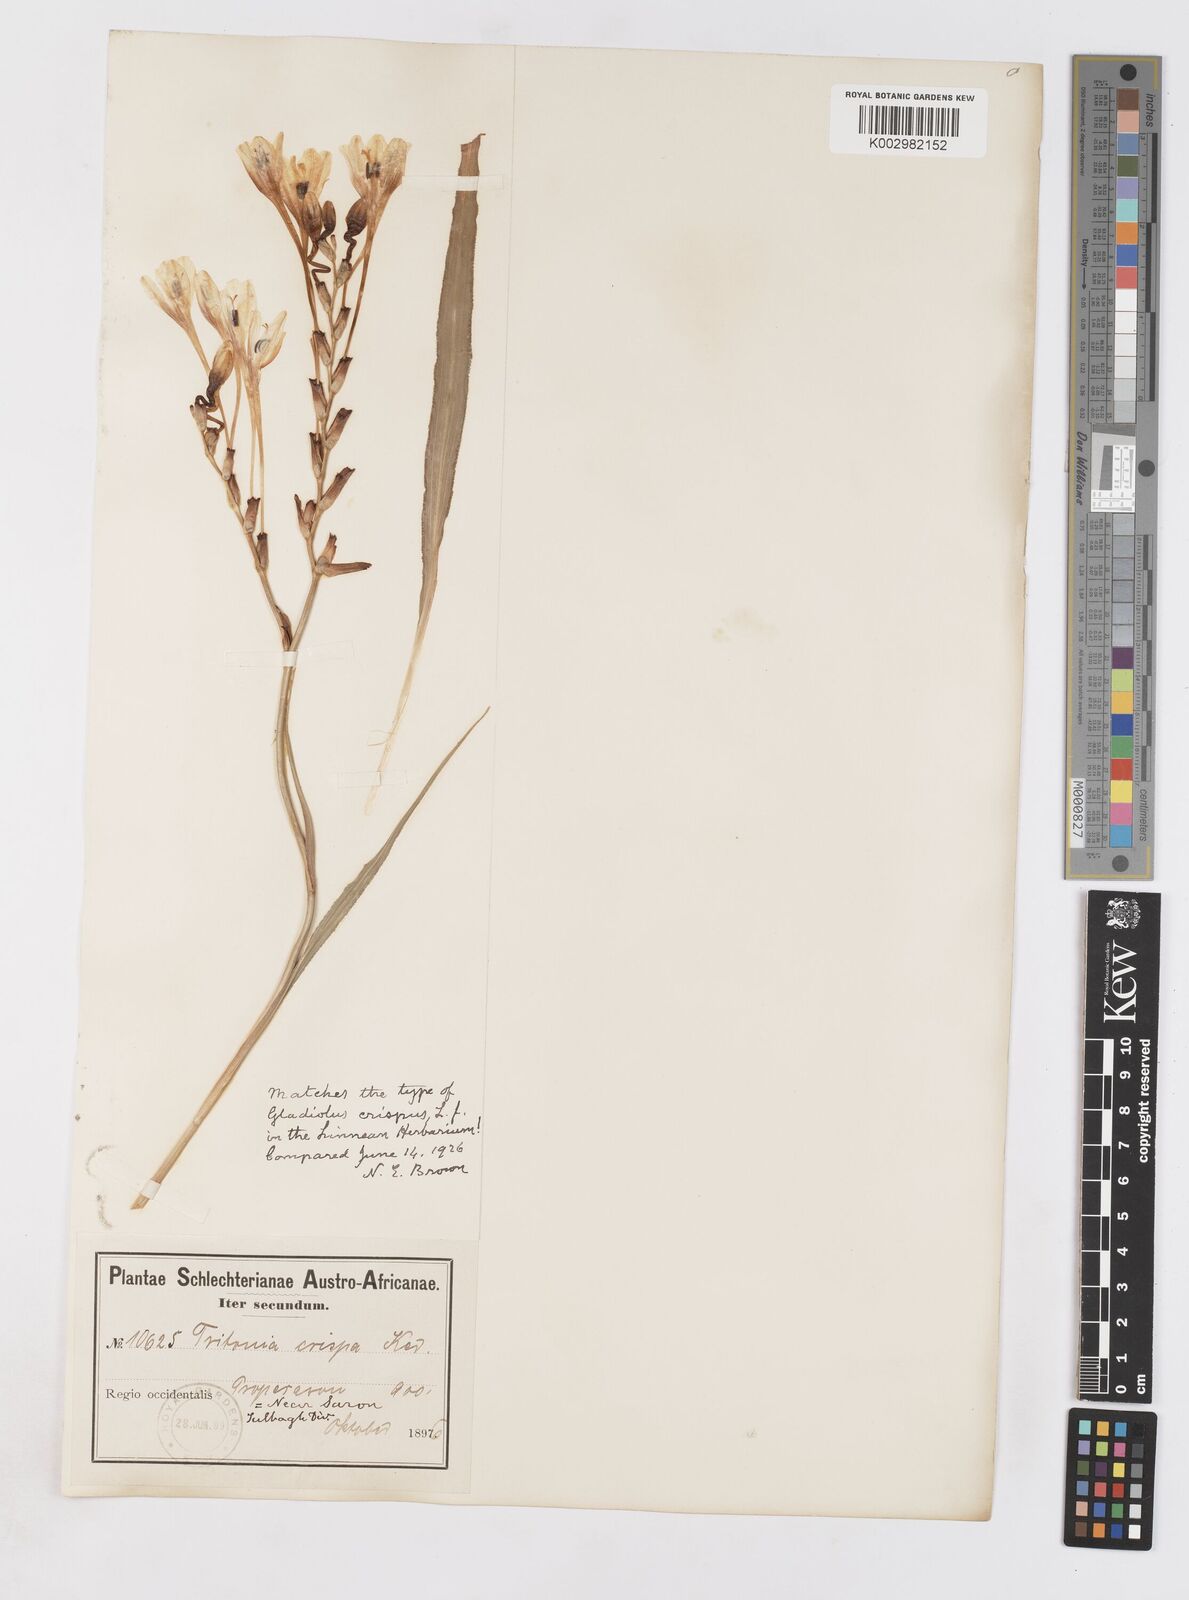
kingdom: Plantae
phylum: Tracheophyta
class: Liliopsida
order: Asparagales
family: Iridaceae
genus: Tritonia
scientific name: Tritonia undulata
